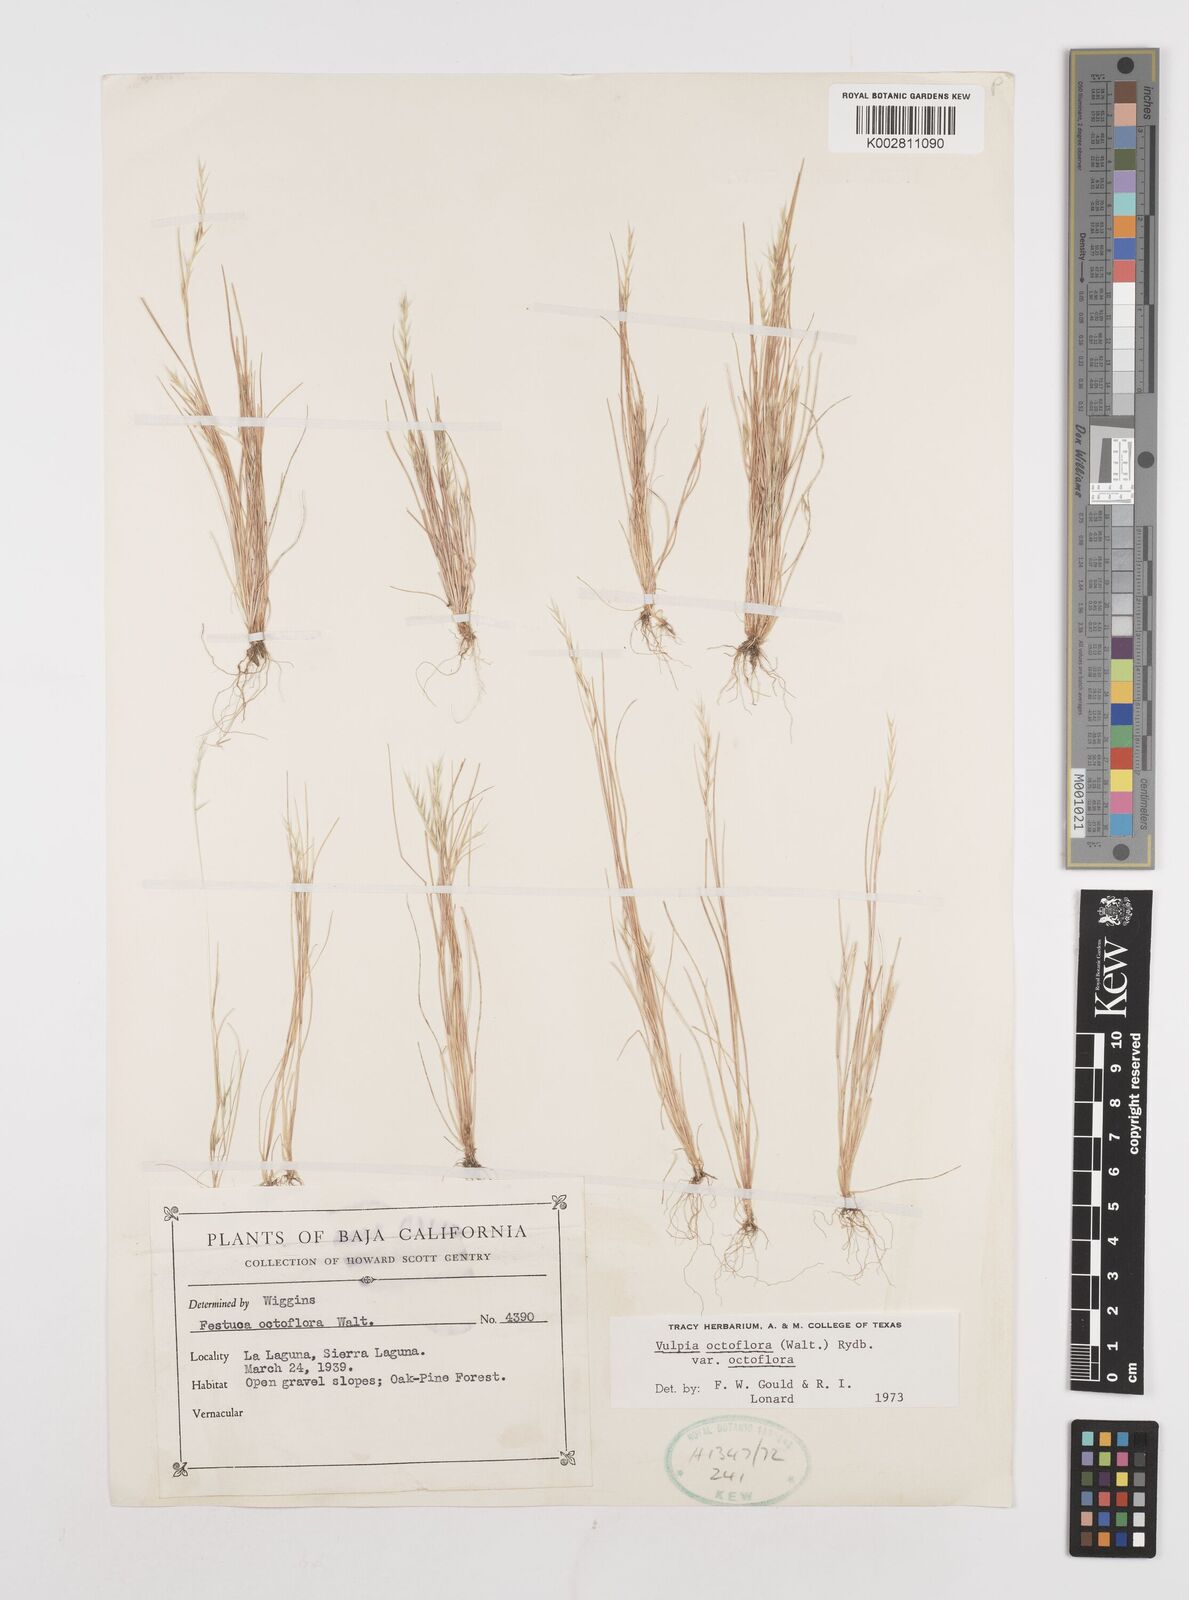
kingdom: Plantae
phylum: Tracheophyta
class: Liliopsida
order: Poales
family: Poaceae
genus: Festuca
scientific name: Festuca octoflora
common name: Sixweeks grass
